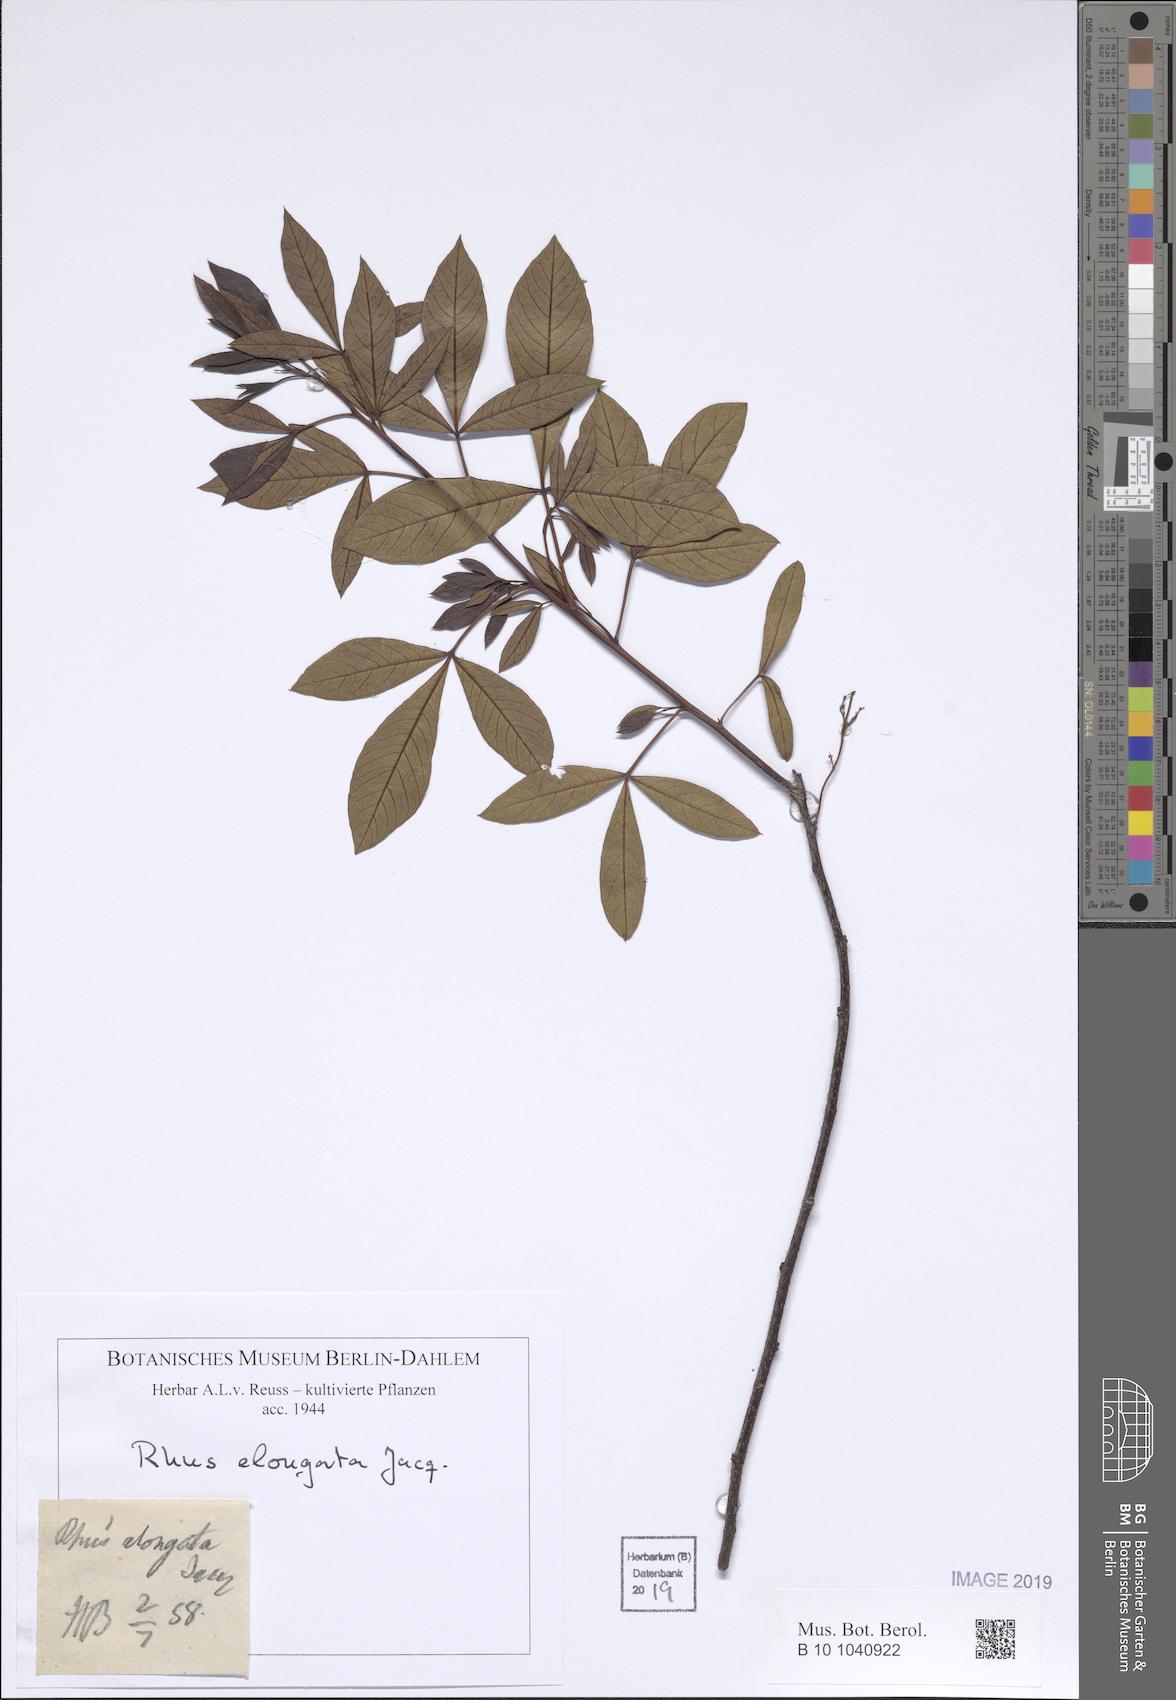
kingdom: Plantae
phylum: Tracheophyta
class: Magnoliopsida
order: Sapindales
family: Anacardiaceae
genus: Searsia
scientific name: Searsia laevigata
